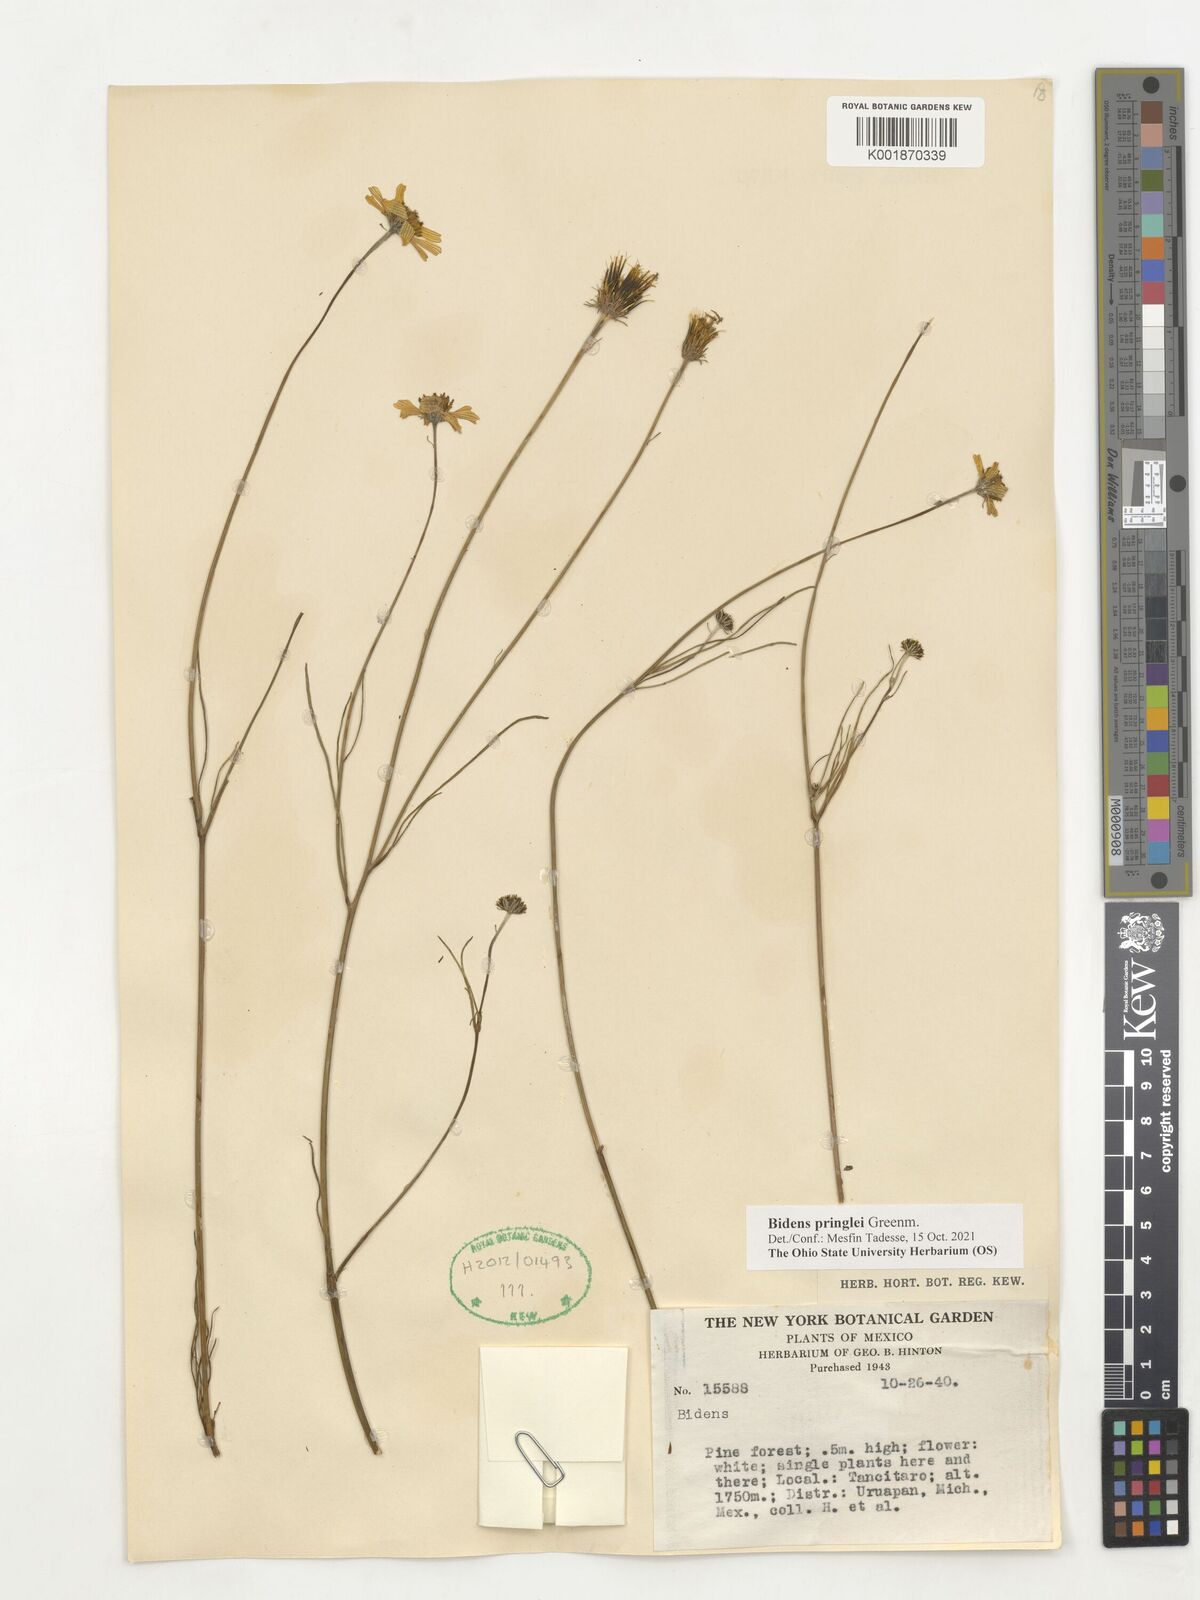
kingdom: Plantae
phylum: Tracheophyta
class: Magnoliopsida
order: Asterales
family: Asteraceae
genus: Bidens
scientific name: Bidens pringlei
